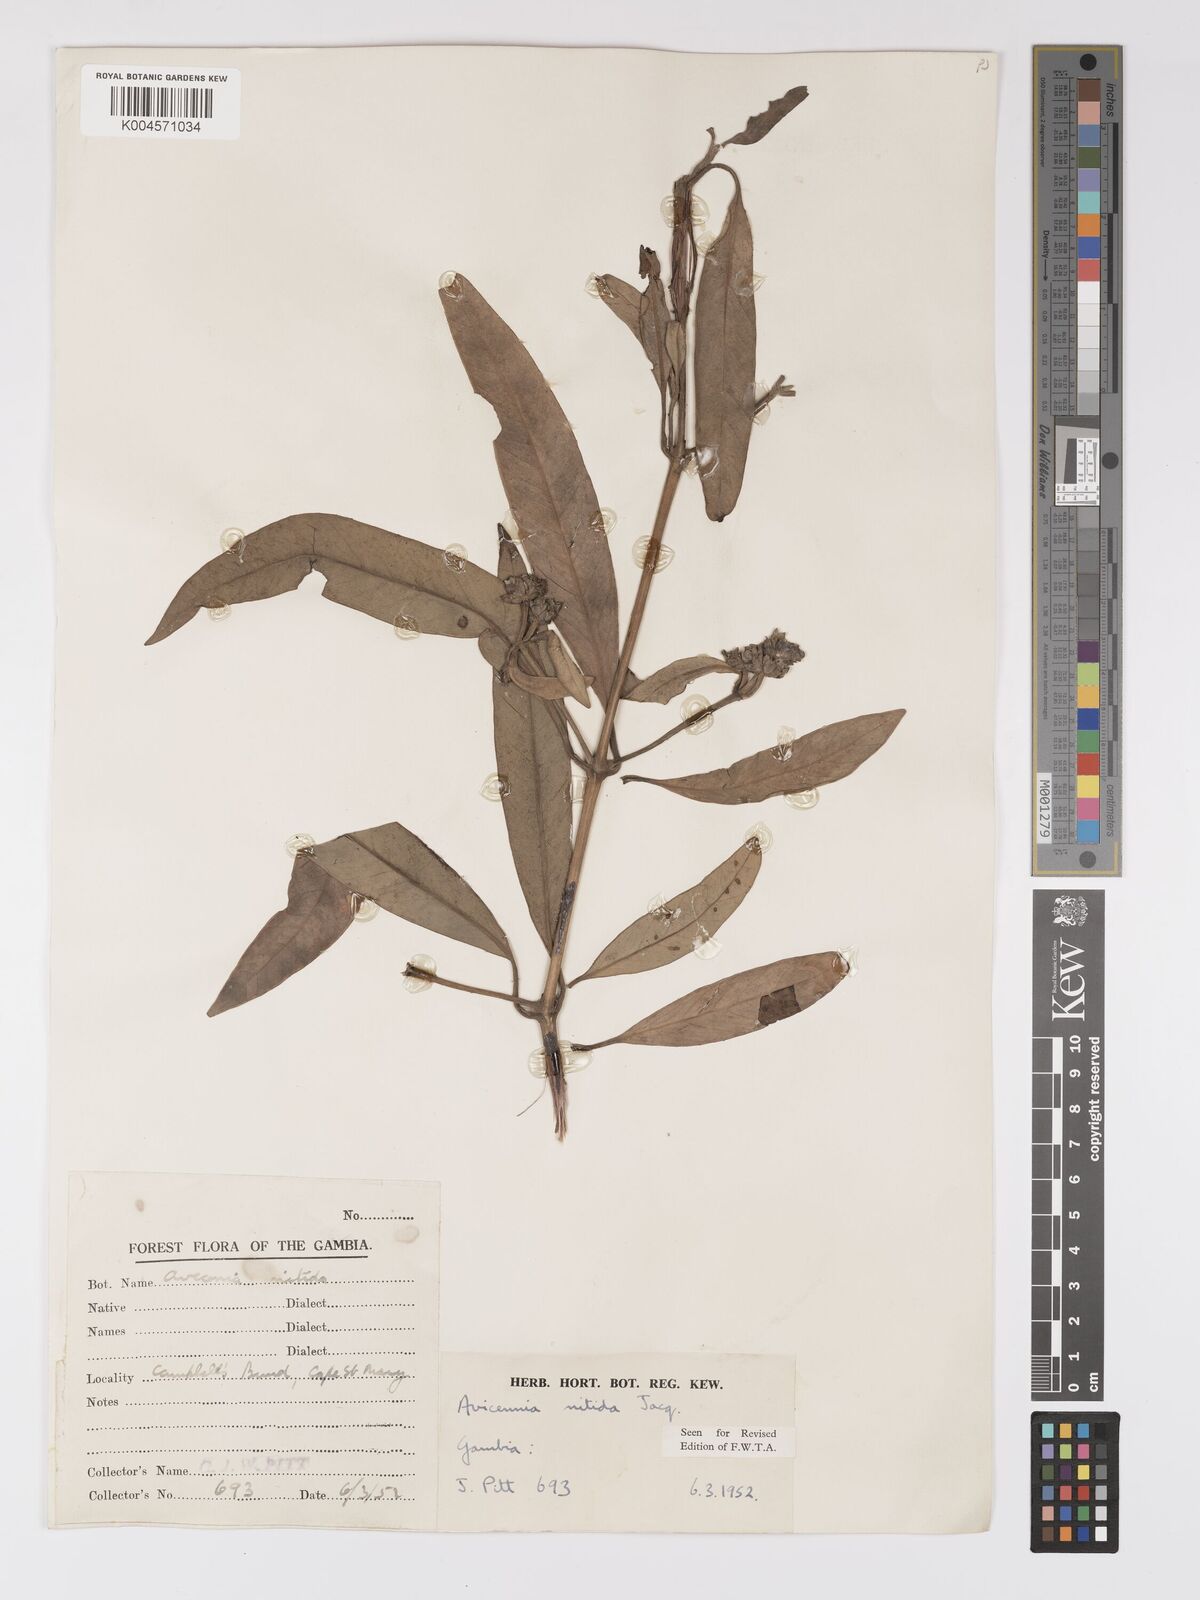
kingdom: Plantae
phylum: Tracheophyta
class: Magnoliopsida
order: Lamiales
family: Acanthaceae
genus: Avicennia
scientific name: Avicennia germinans
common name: Black mangrove
